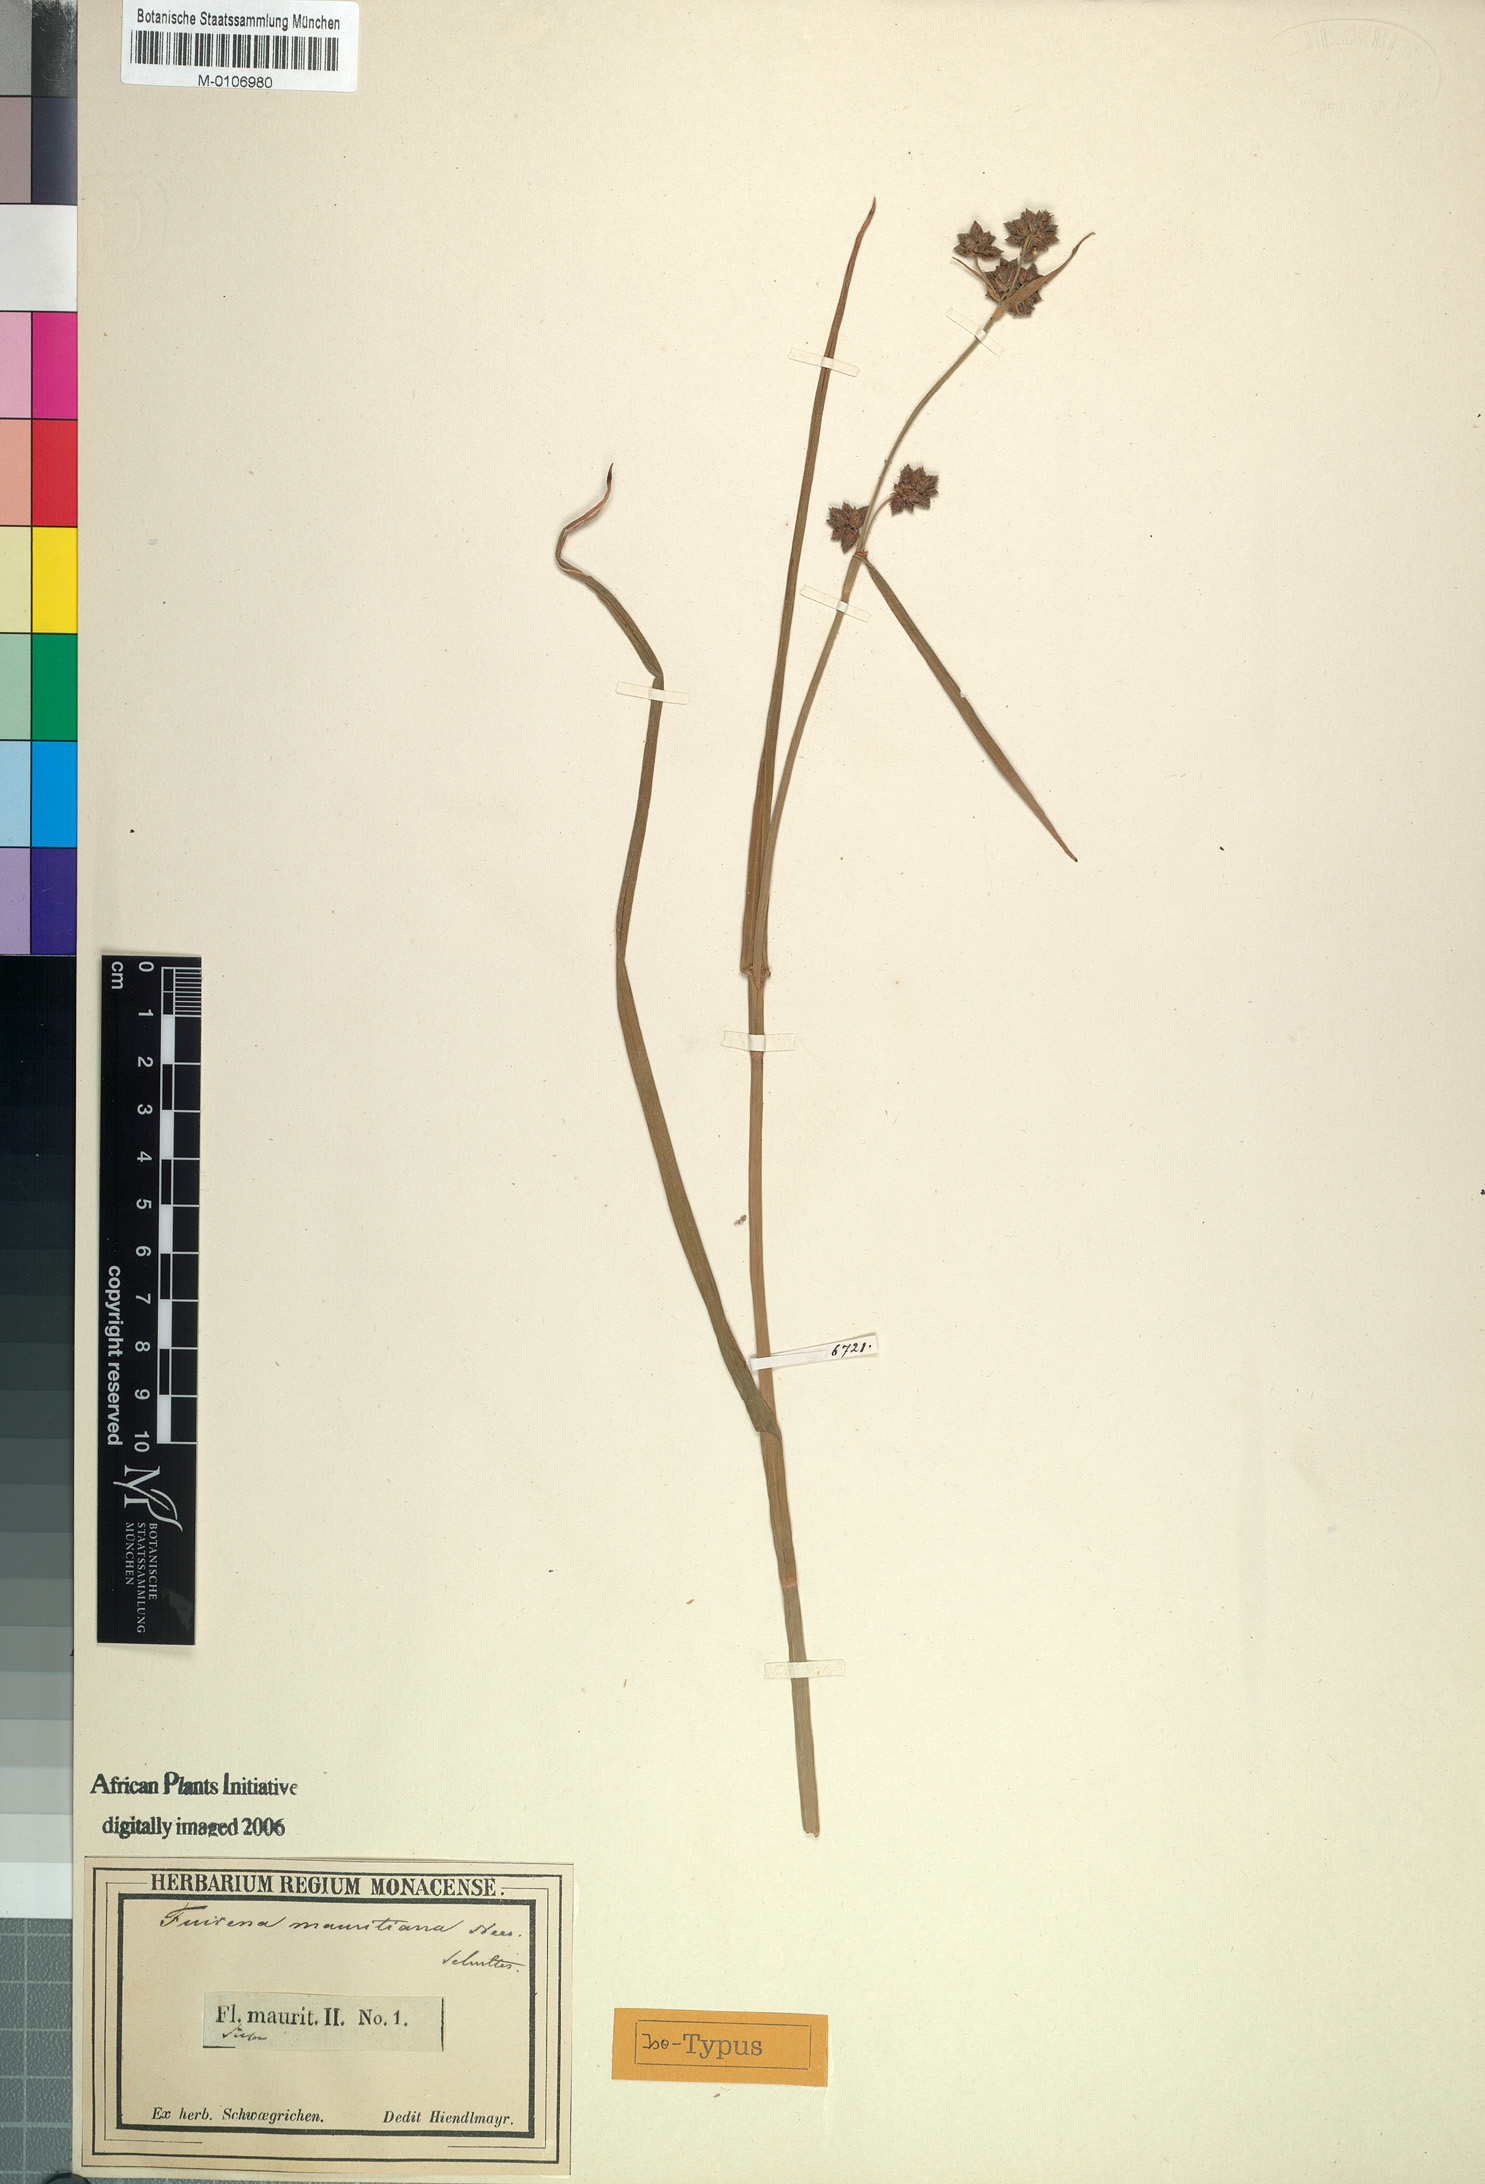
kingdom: Plantae
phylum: Tracheophyta
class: Liliopsida
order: Poales
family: Cyperaceae
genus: Fuirena
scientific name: Fuirena umbellata
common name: Yefen
